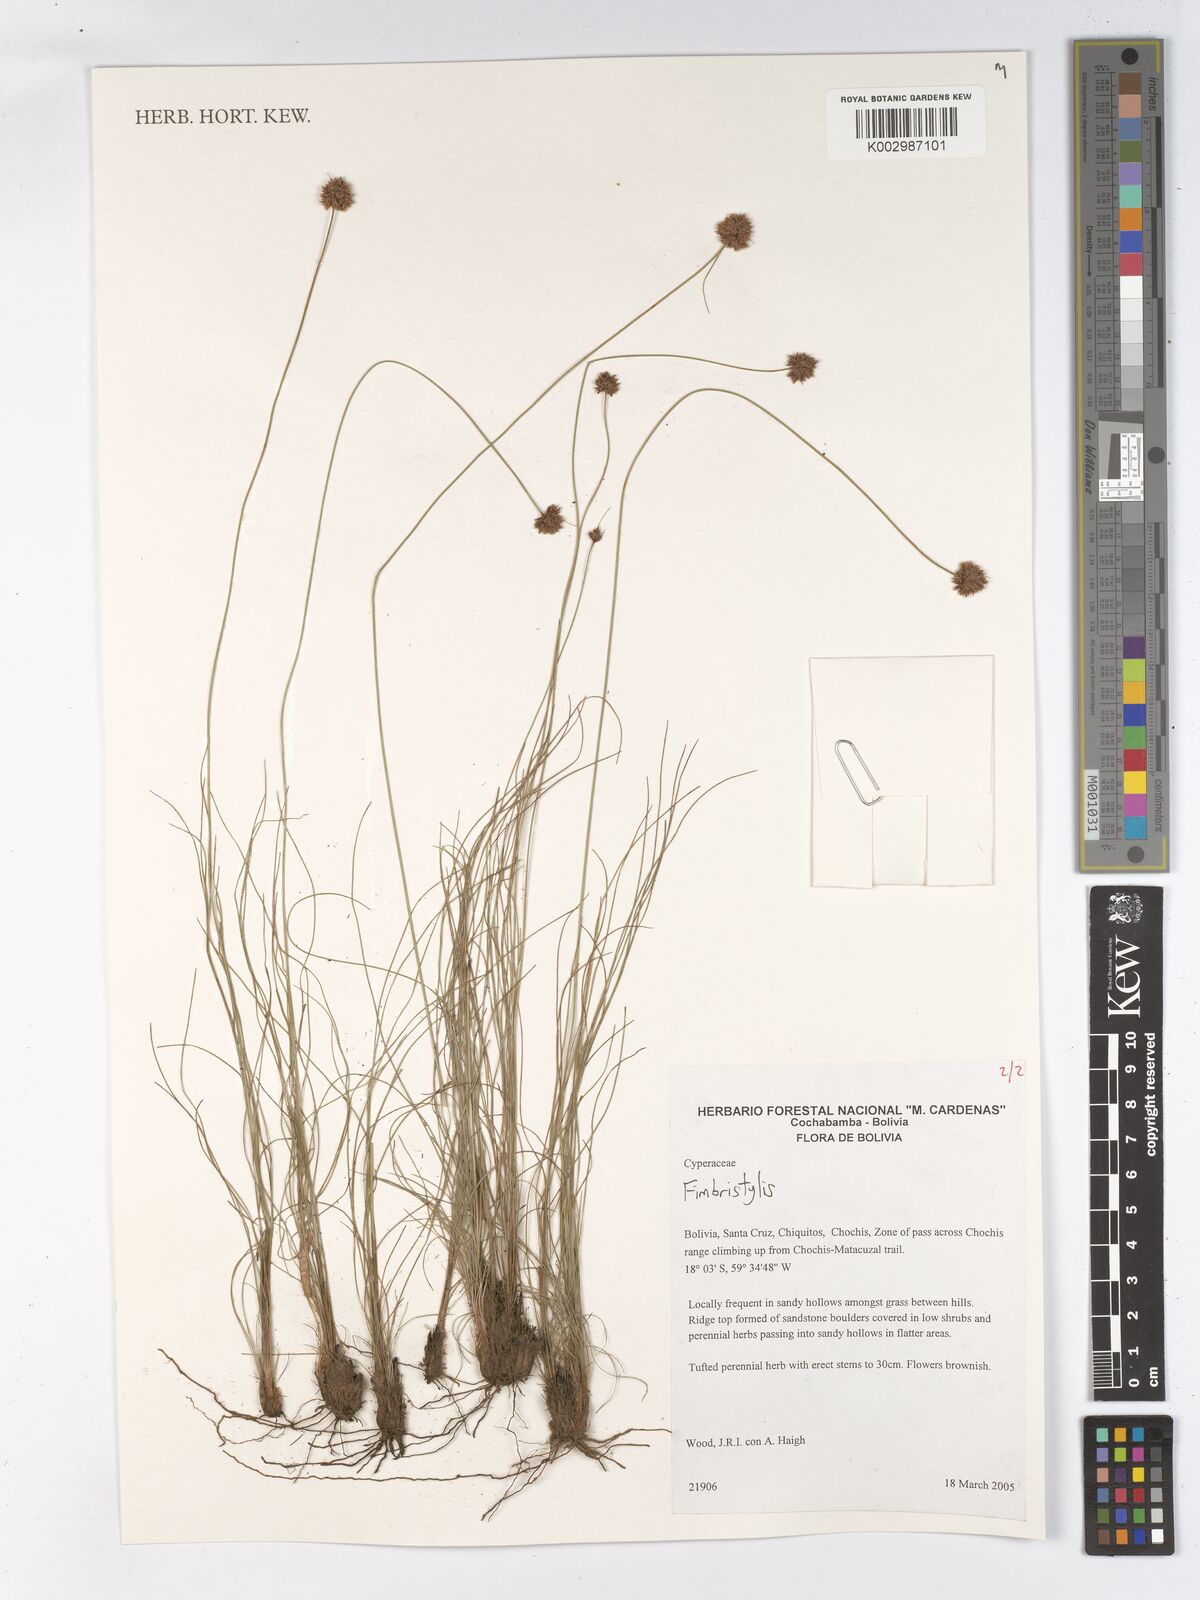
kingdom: Plantae
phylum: Tracheophyta
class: Liliopsida
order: Poales
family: Cyperaceae
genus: Fimbristylis
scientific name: Fimbristylis
